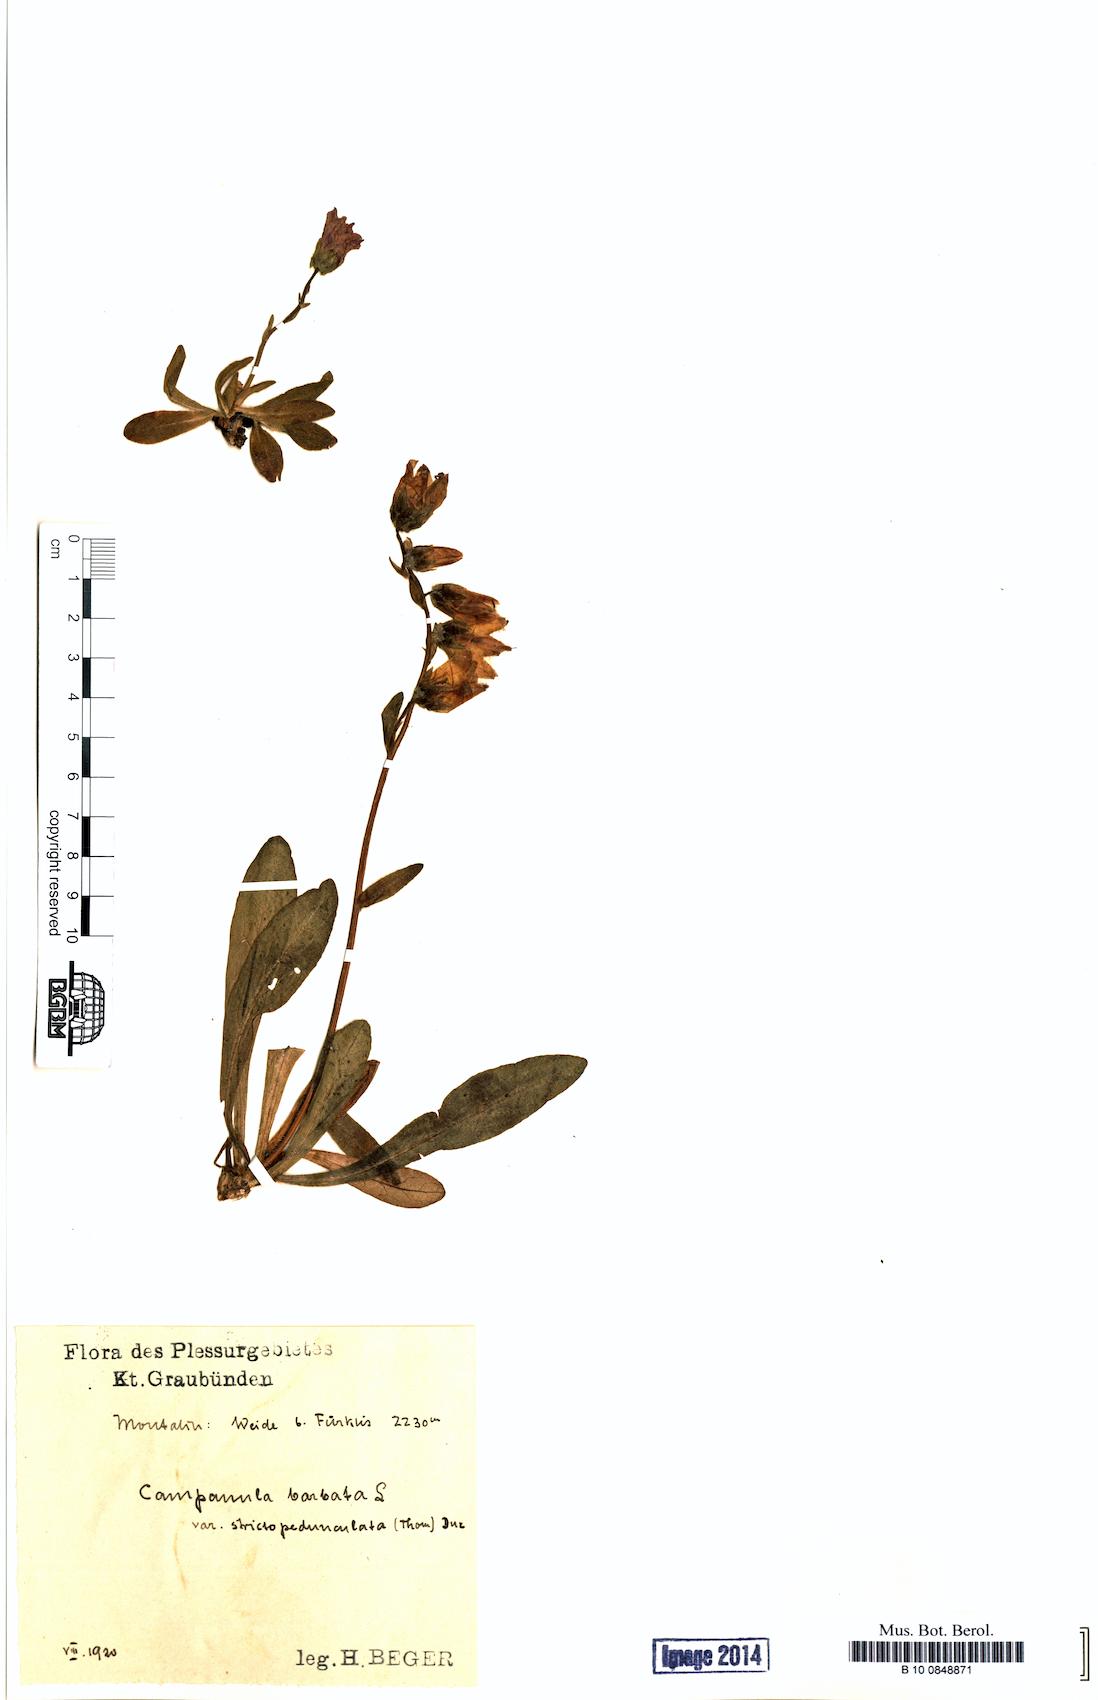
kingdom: Plantae
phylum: Tracheophyta
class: Magnoliopsida
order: Asterales
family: Campanulaceae
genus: Campanula
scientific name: Campanula barbata
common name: Bearded bellflower
